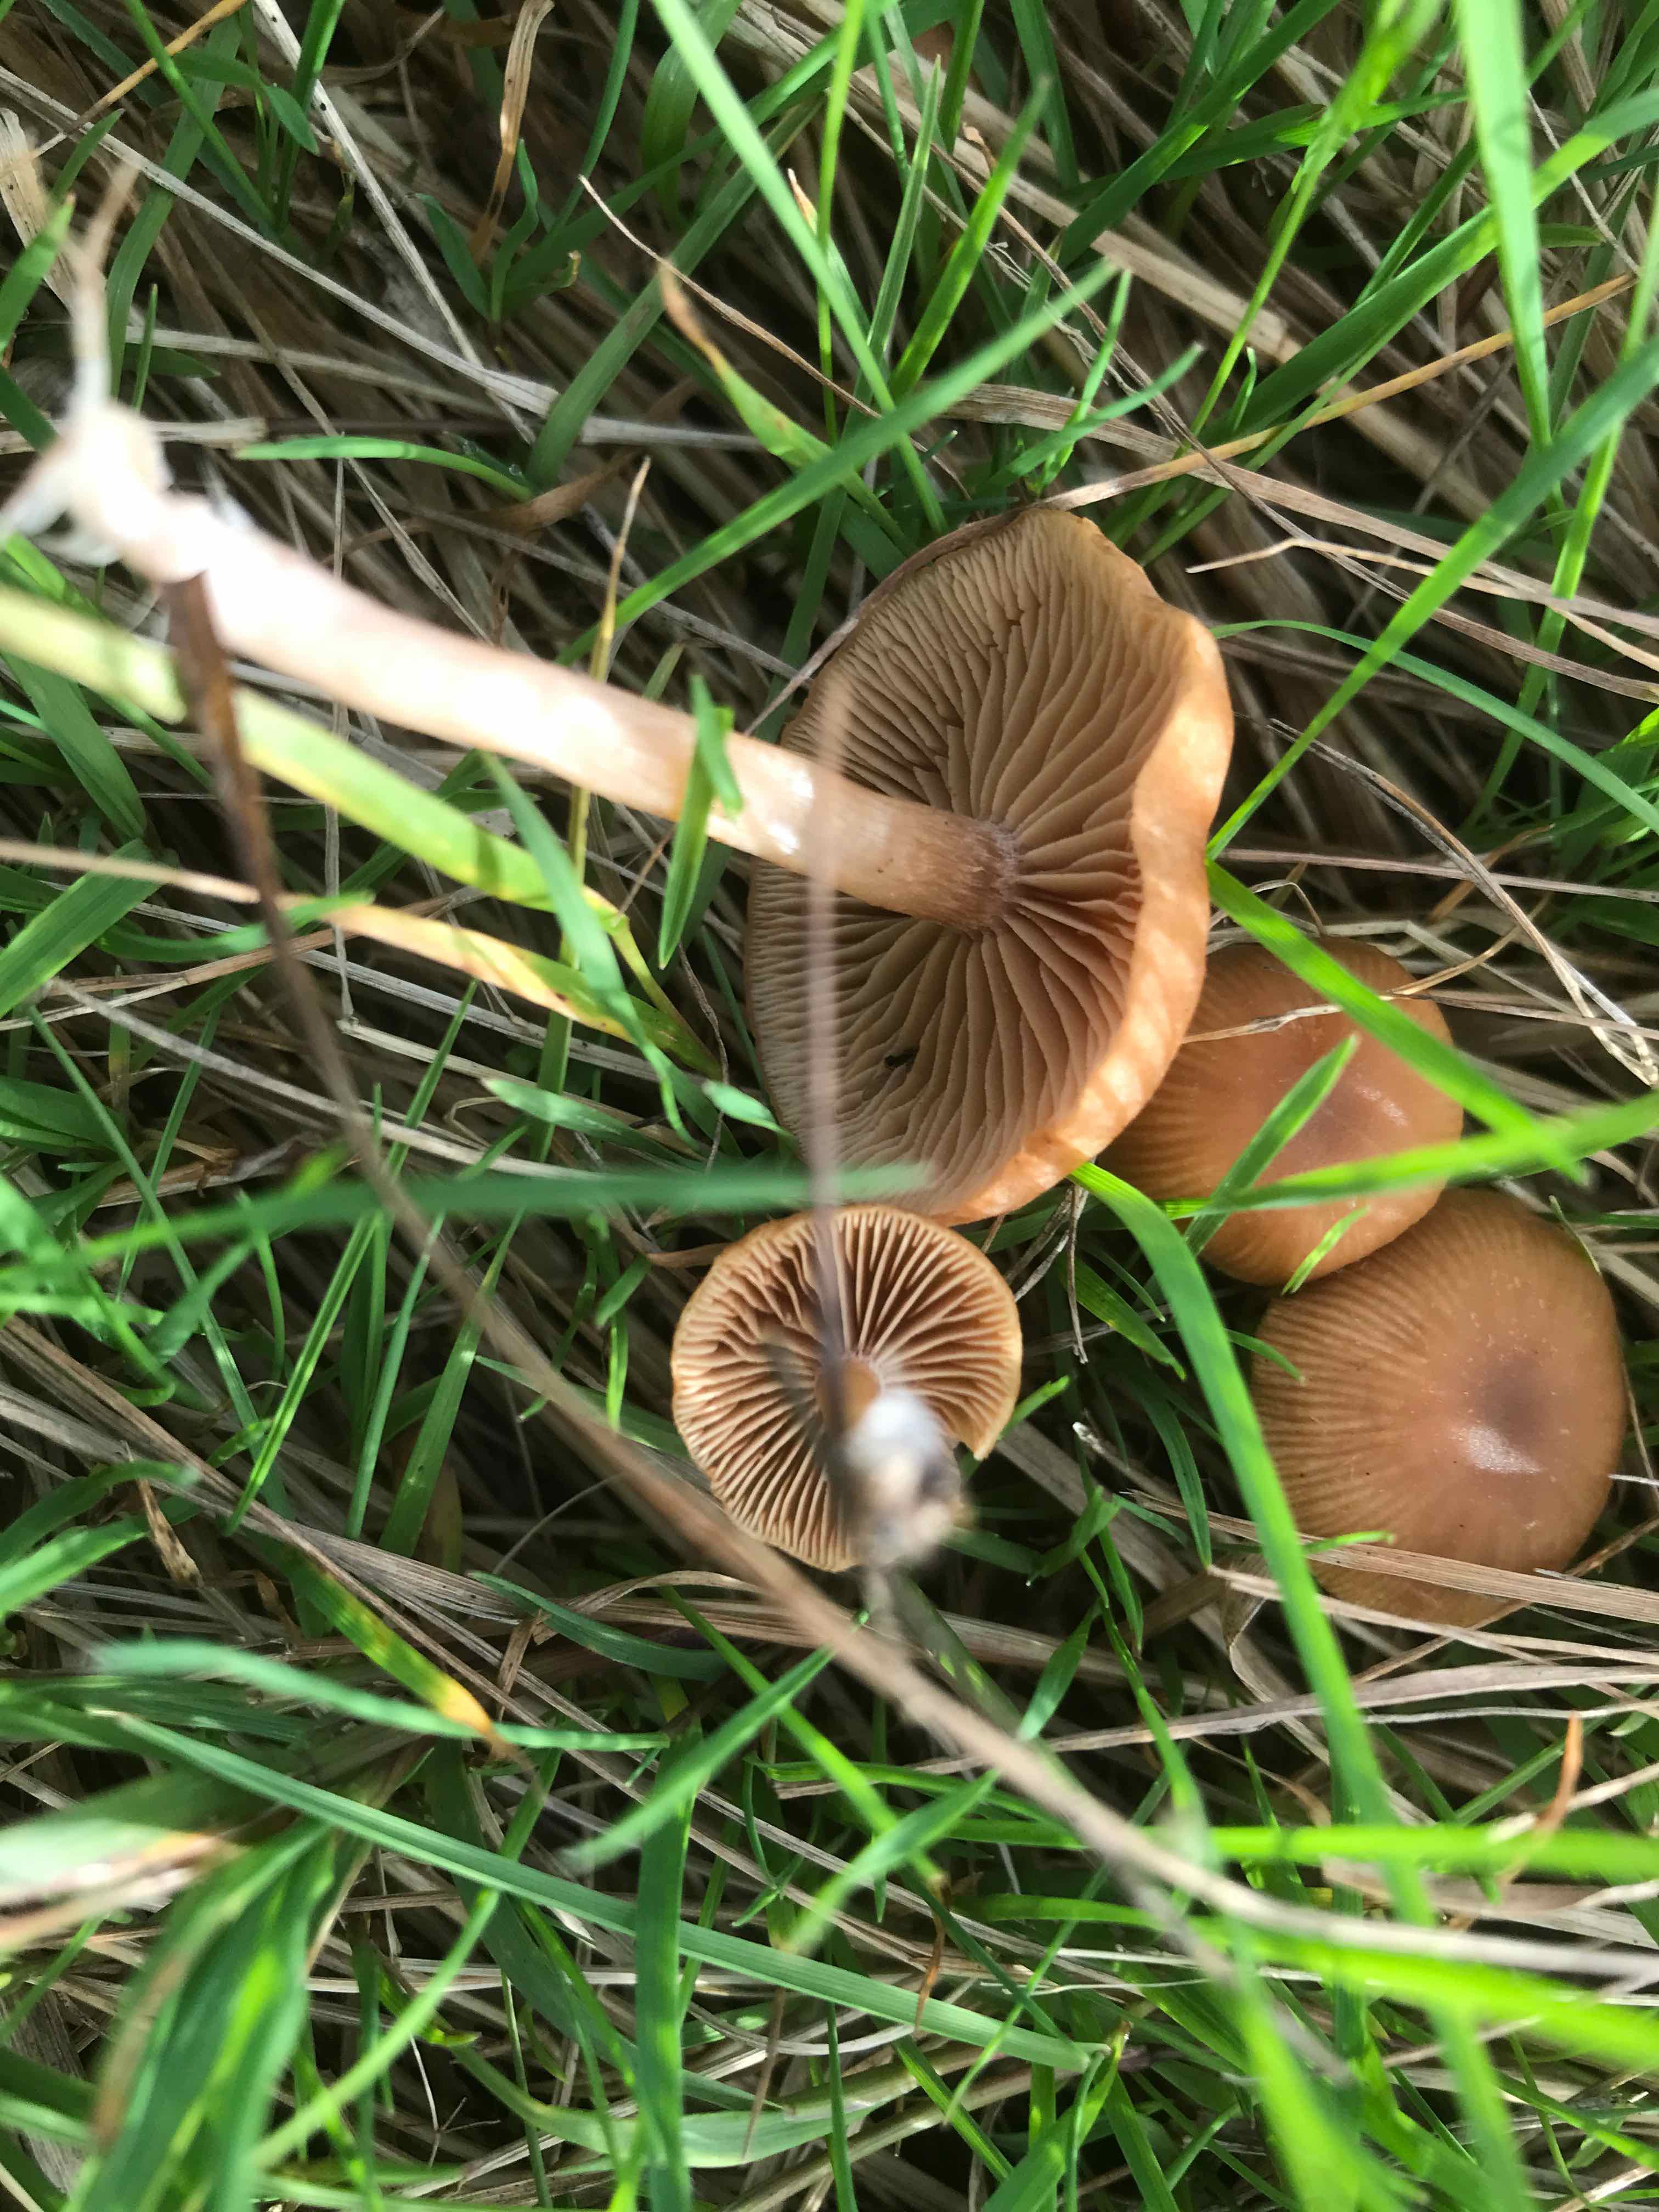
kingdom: Fungi
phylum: Basidiomycota
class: Agaricomycetes
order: Agaricales
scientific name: Agaricales
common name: champignonordenen
